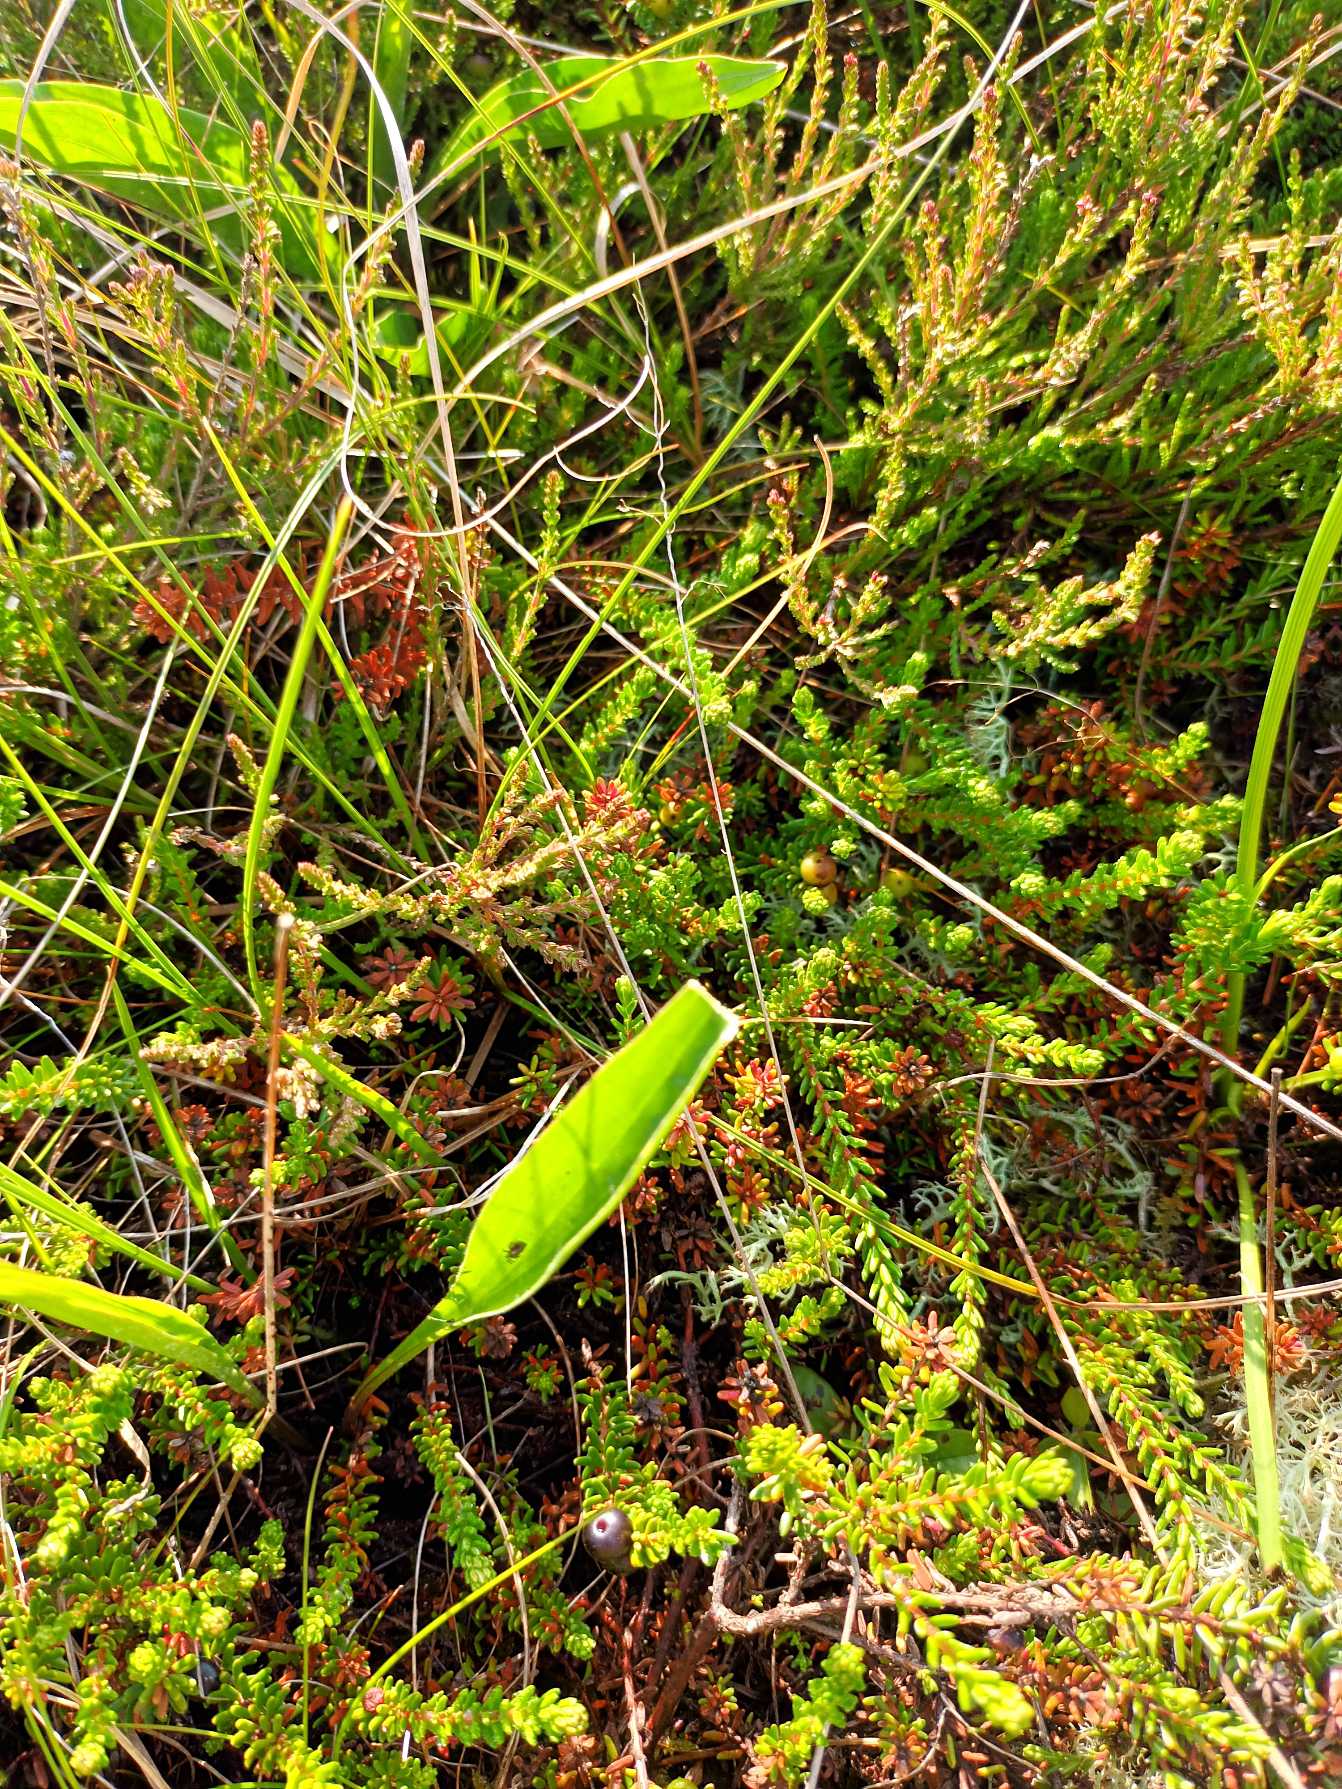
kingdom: Plantae
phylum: Tracheophyta
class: Magnoliopsida
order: Asterales
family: Asteraceae
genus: Scorzonera
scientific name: Scorzonera humilis
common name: Lav skorsoner
